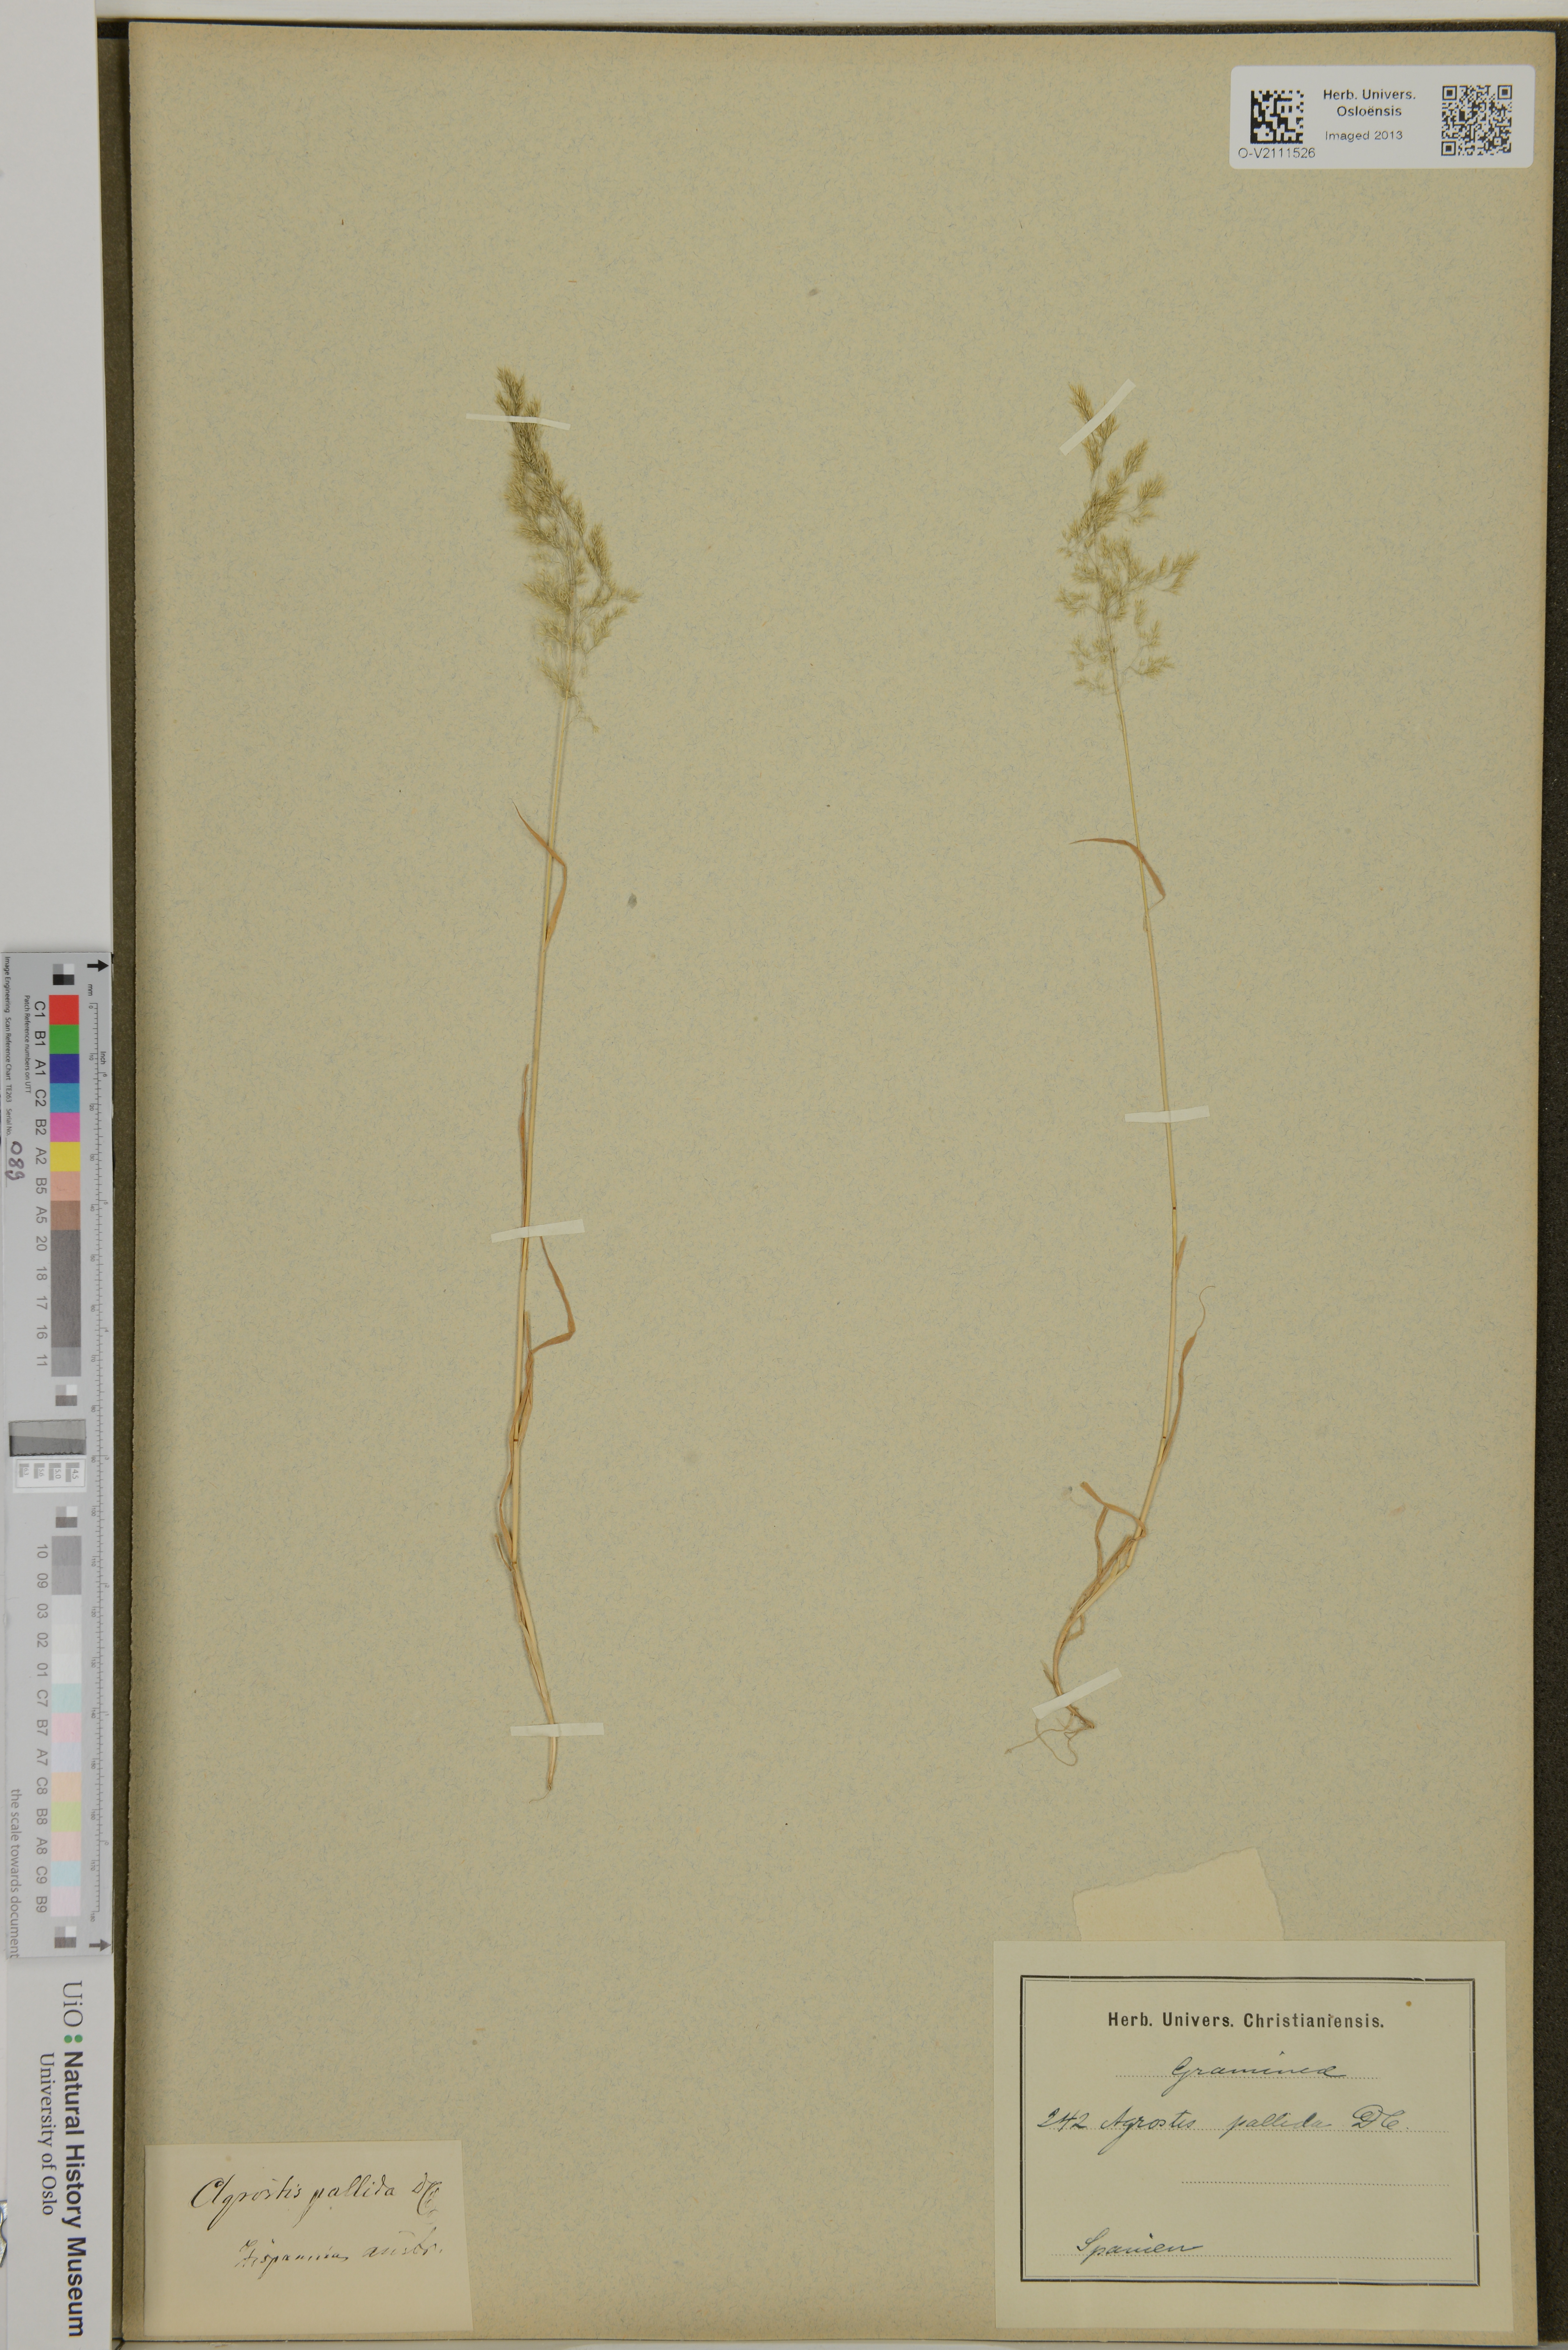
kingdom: Plantae
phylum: Tracheophyta
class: Liliopsida
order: Poales
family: Poaceae
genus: Agrostis
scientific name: Agrostis
